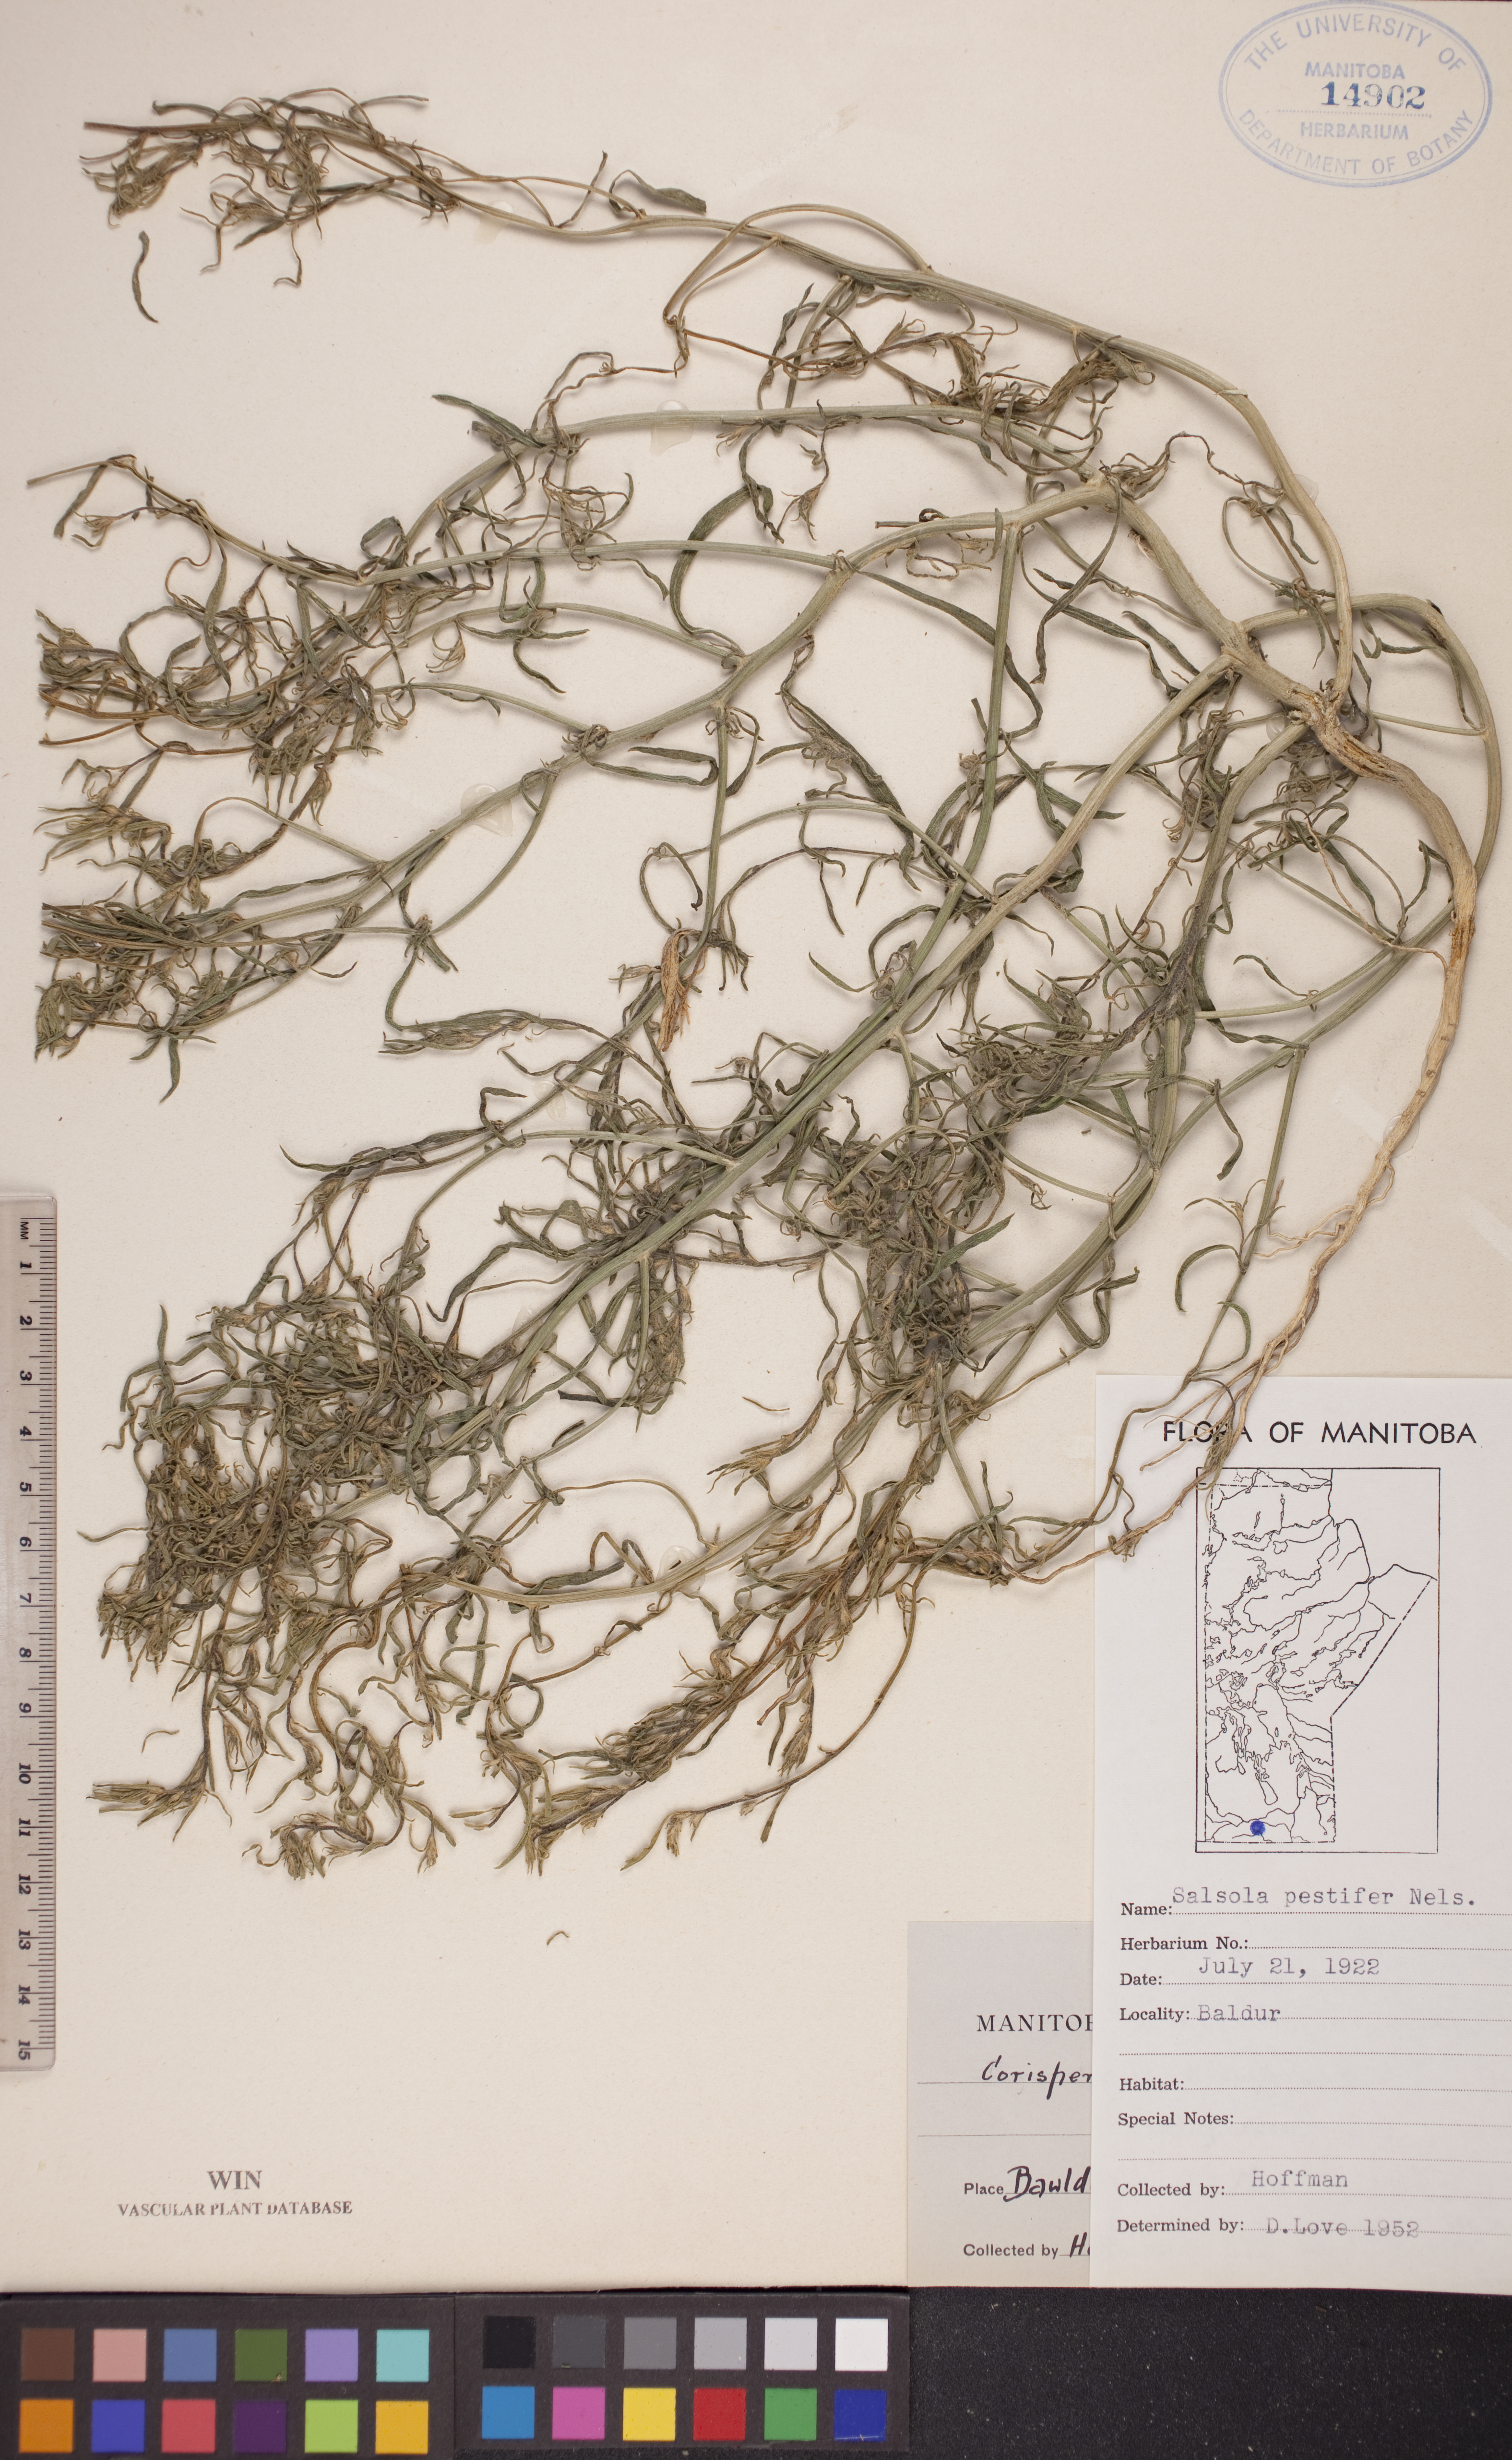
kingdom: Plantae
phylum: Tracheophyta
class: Magnoliopsida
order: Caryophyllales
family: Amaranthaceae
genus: Salsola
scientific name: Salsola tragus
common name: Prickly russian thistle
